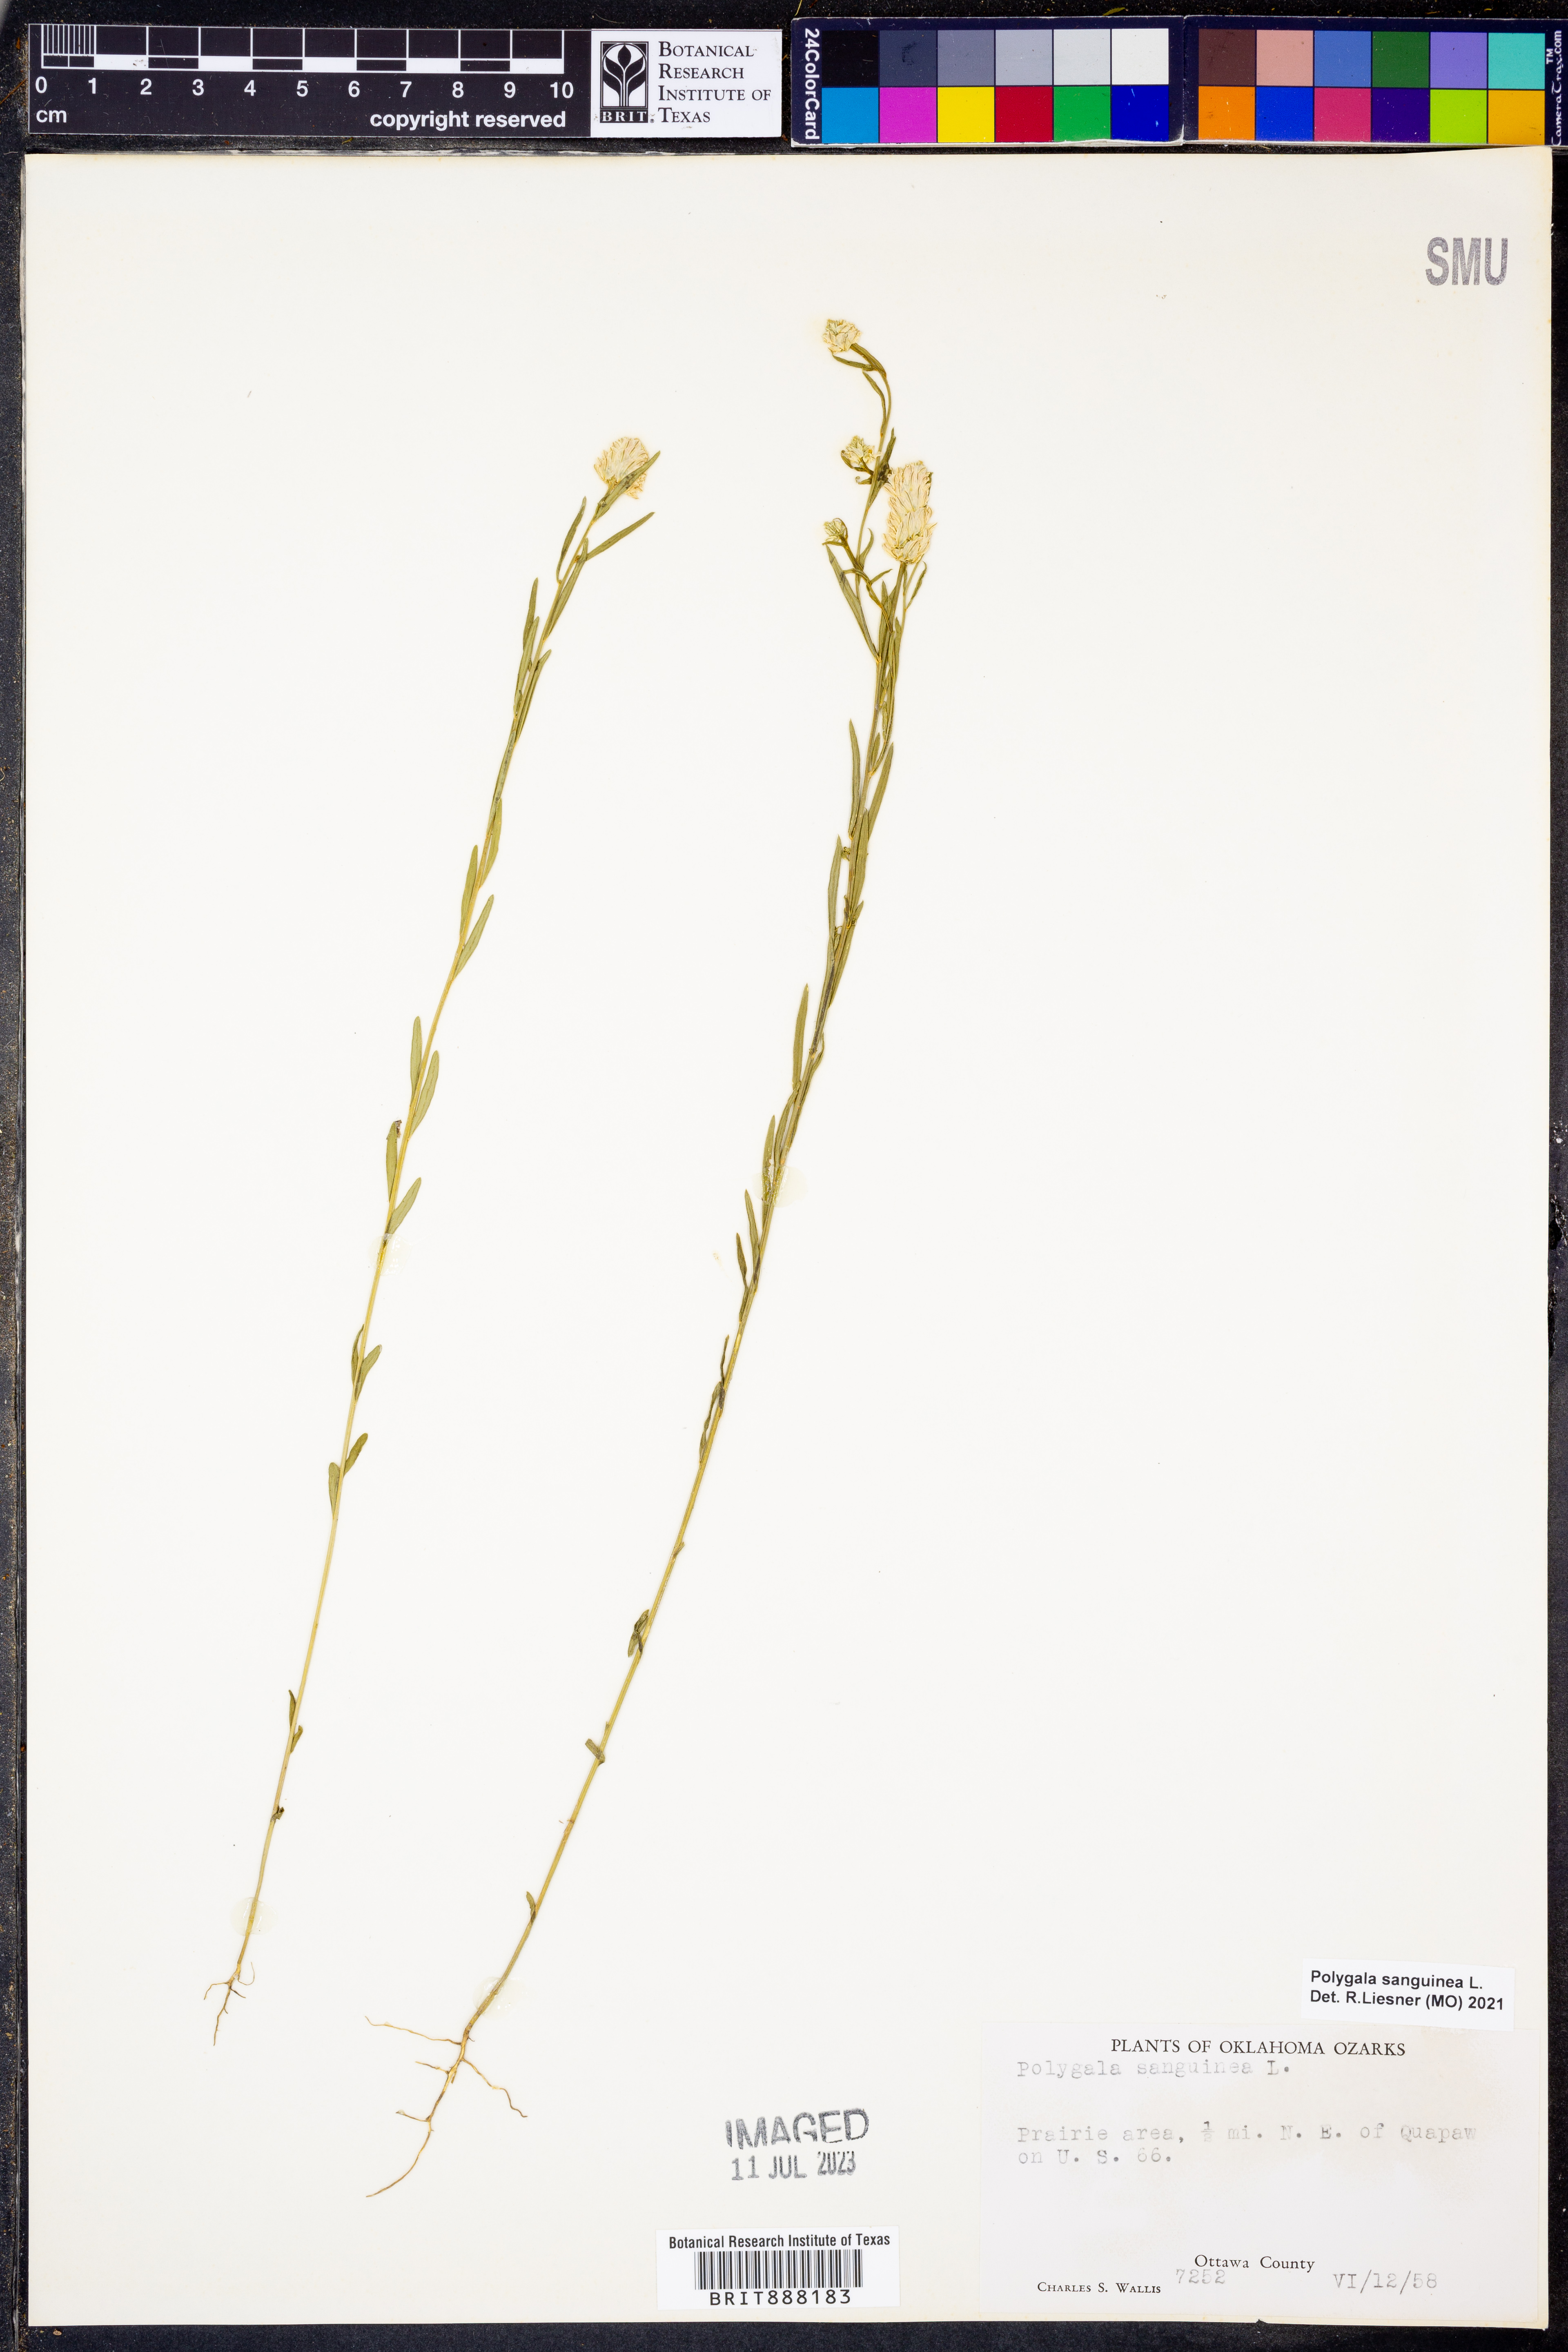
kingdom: Plantae
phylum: Tracheophyta
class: Magnoliopsida
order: Fabales
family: Polygalaceae
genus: Polygala
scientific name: Polygala sanguinea
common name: Blood milkwort
